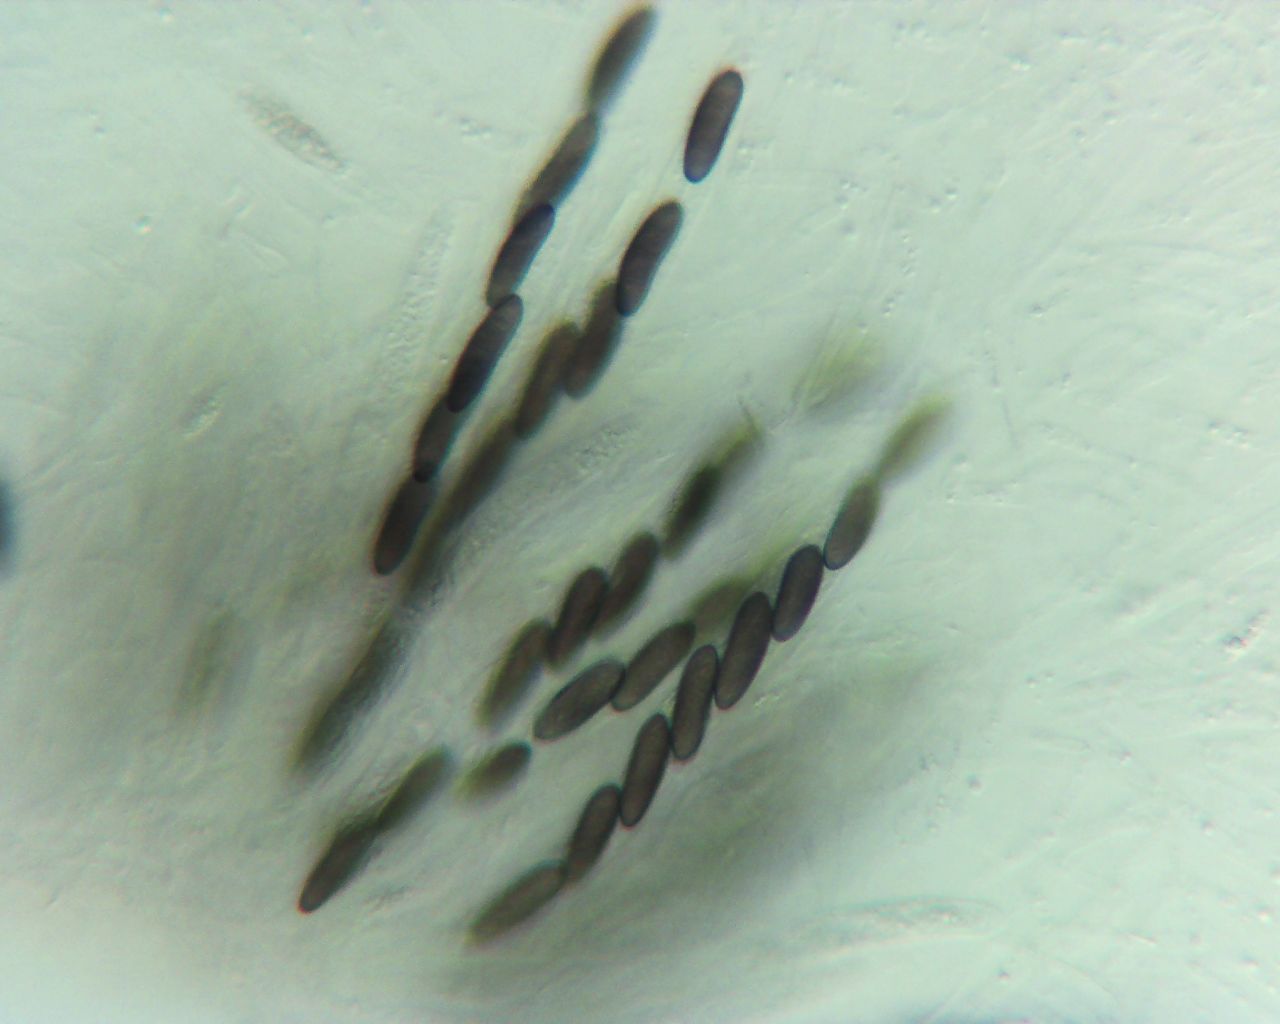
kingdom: Fungi
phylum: Ascomycota
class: Sordariomycetes
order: Amphisphaeriales
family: Clypeosphaeriaceae
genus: Clypeosphaeria
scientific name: Clypeosphaeria mamillana
